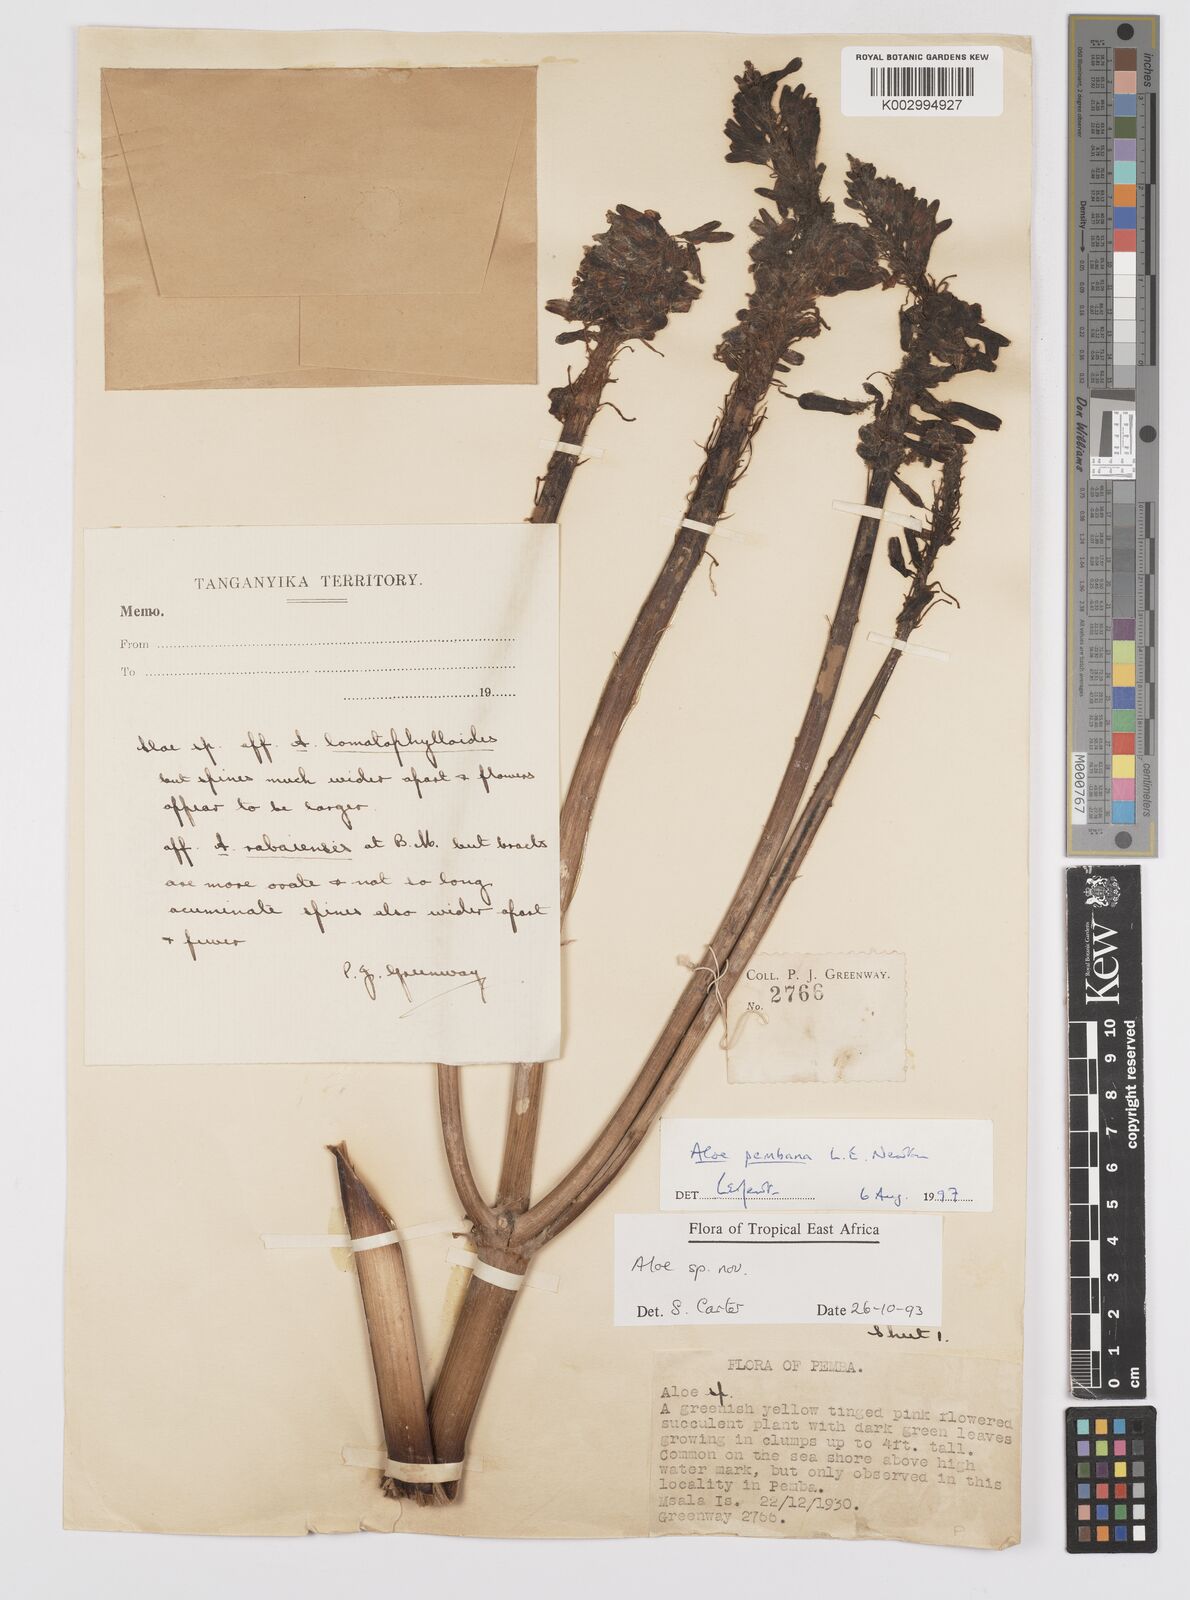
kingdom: Plantae
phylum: Tracheophyta
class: Liliopsida
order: Asparagales
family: Asphodelaceae
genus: Aloe
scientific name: Aloe pembana
